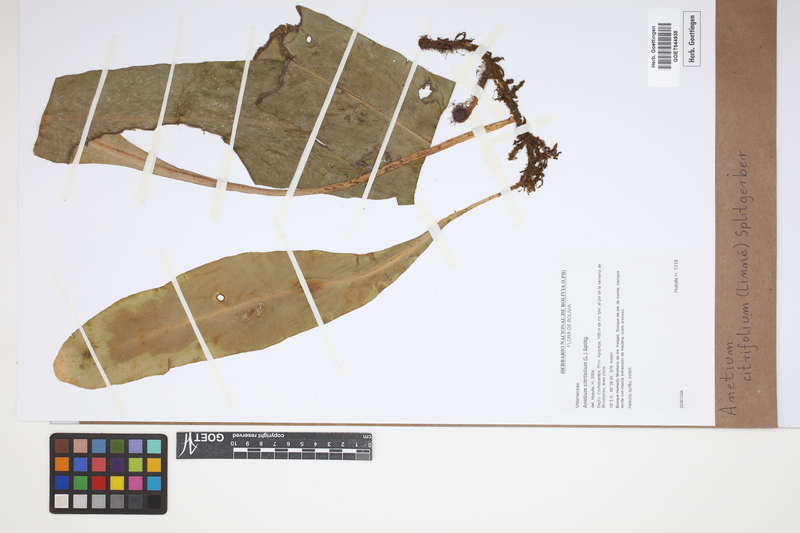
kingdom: Plantae
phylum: Tracheophyta
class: Polypodiopsida
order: Polypodiales
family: Pteridaceae
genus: Polytaenium
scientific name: Polytaenium citrifolium
